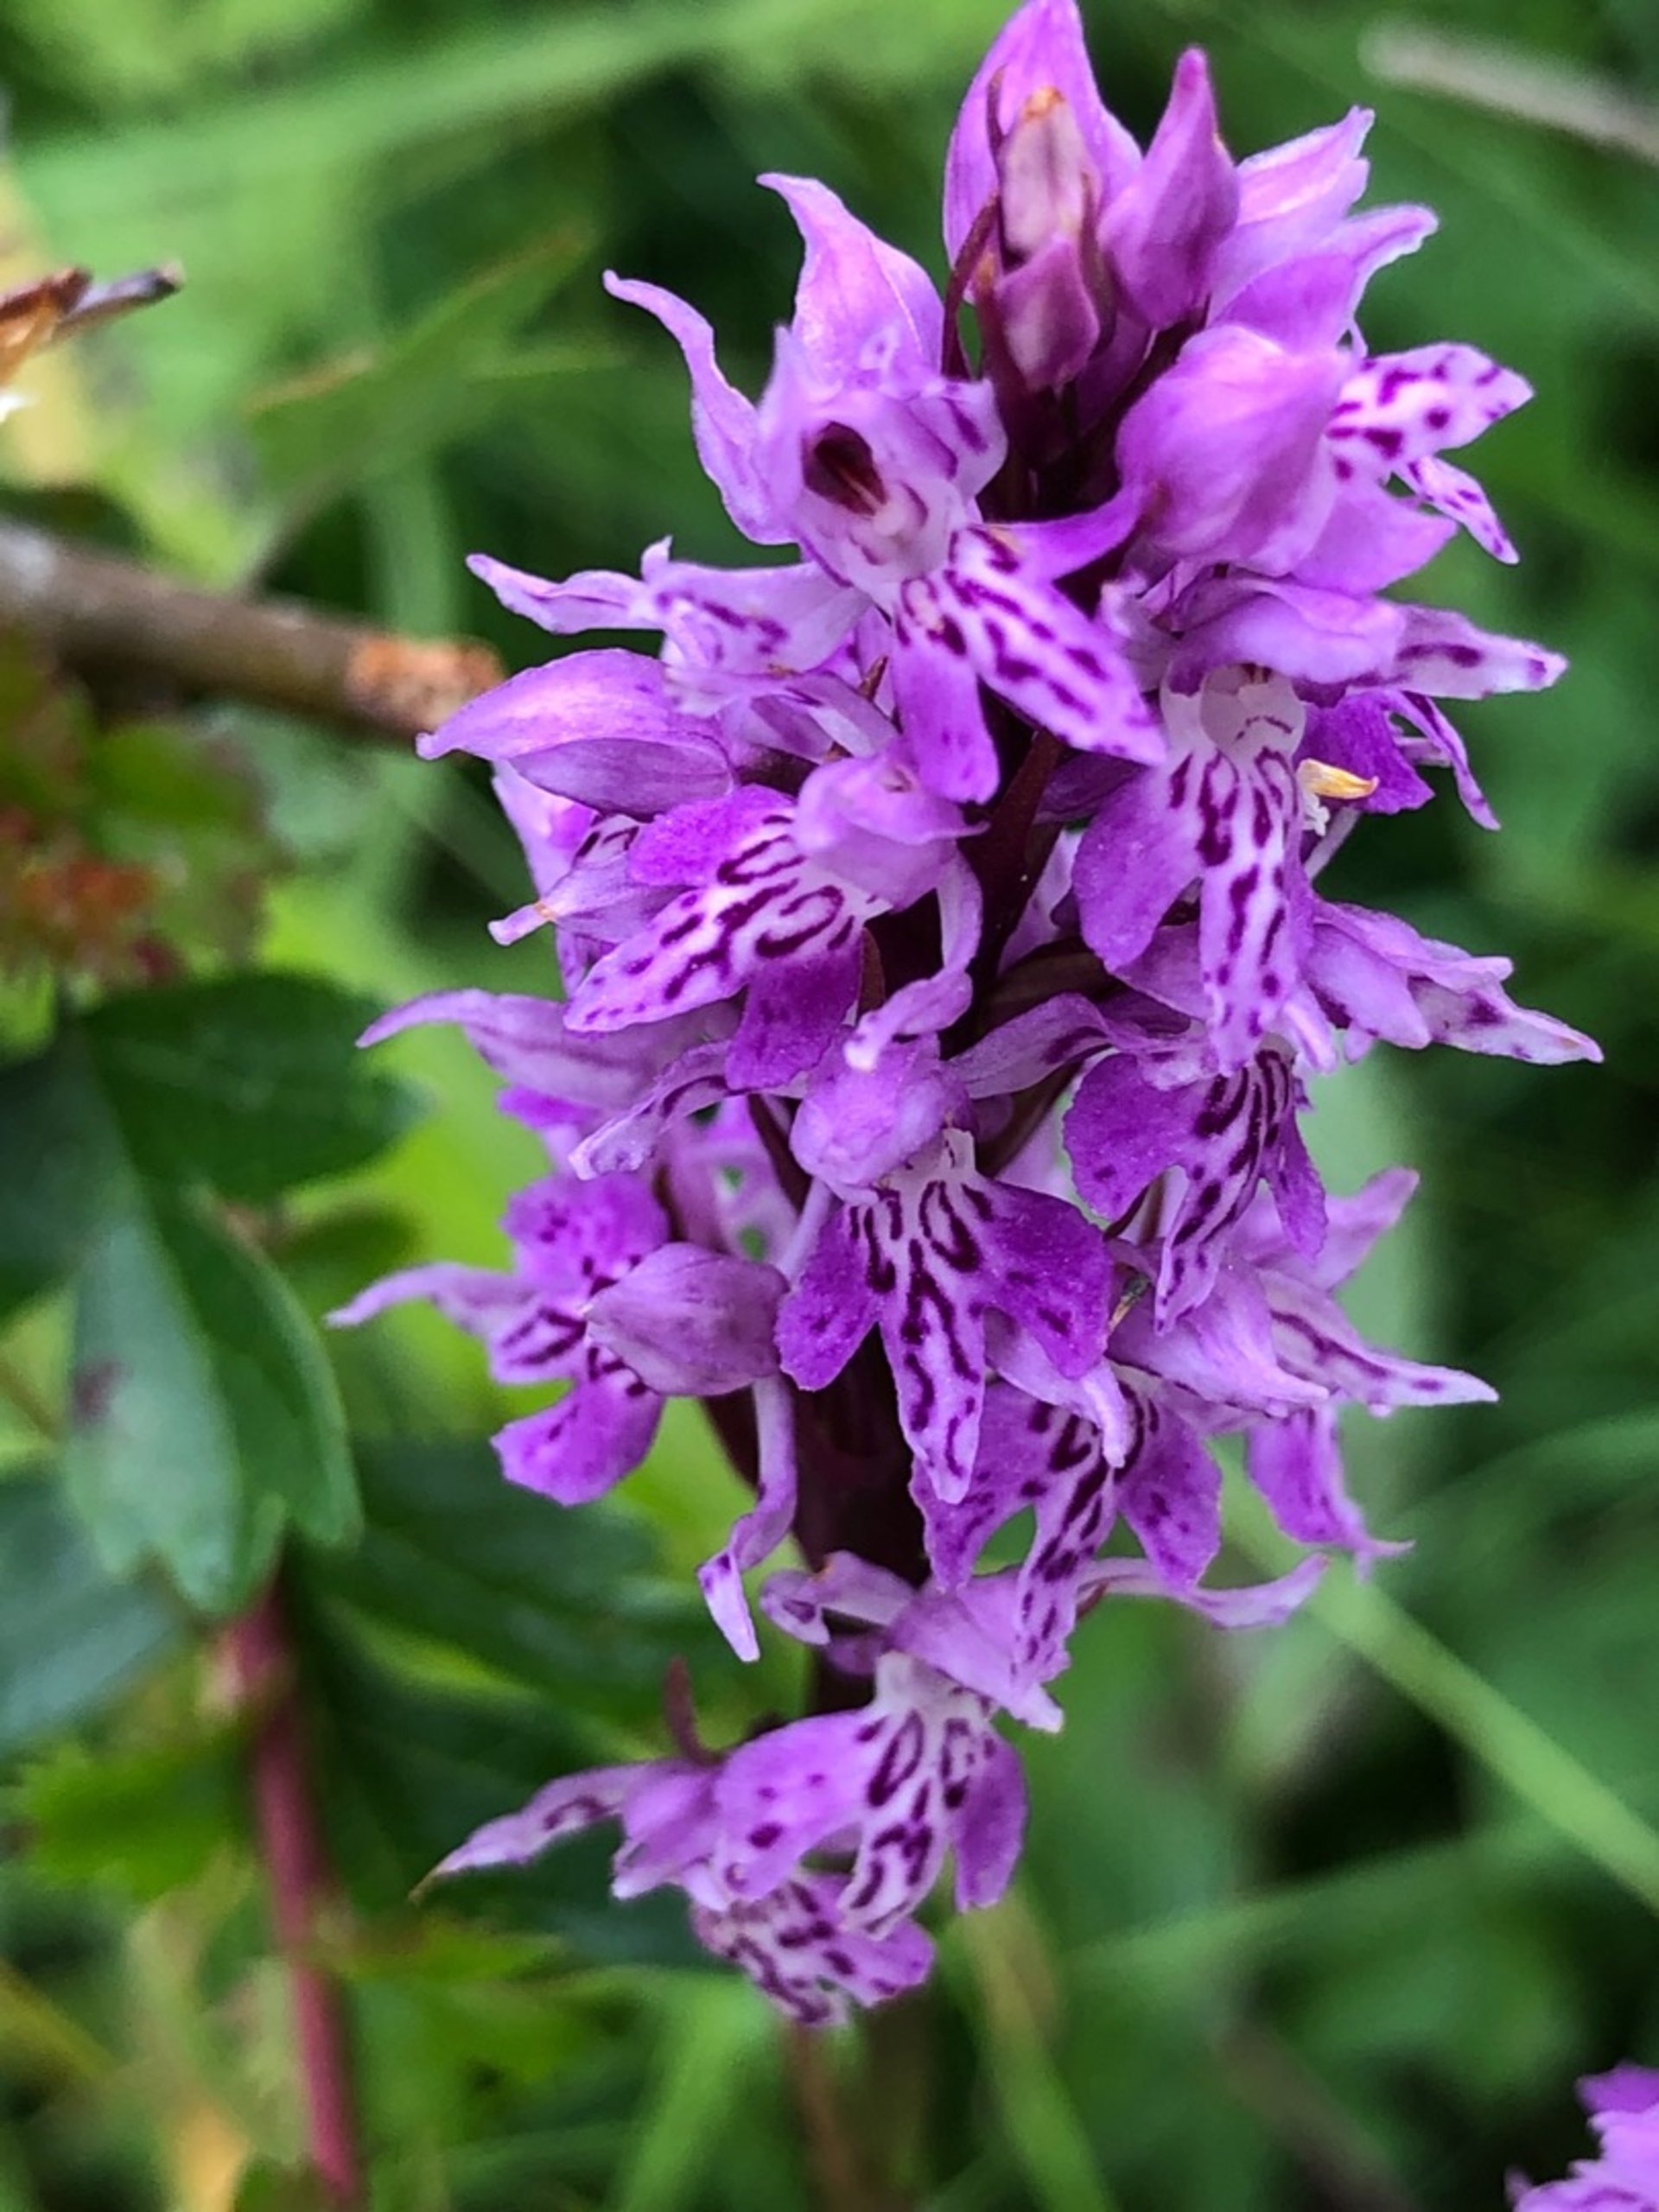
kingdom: Plantae
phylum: Tracheophyta
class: Liliopsida
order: Asparagales
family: Orchidaceae
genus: Dactylorhiza
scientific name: Dactylorhiza maculata
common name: Skov-gøgeurt
